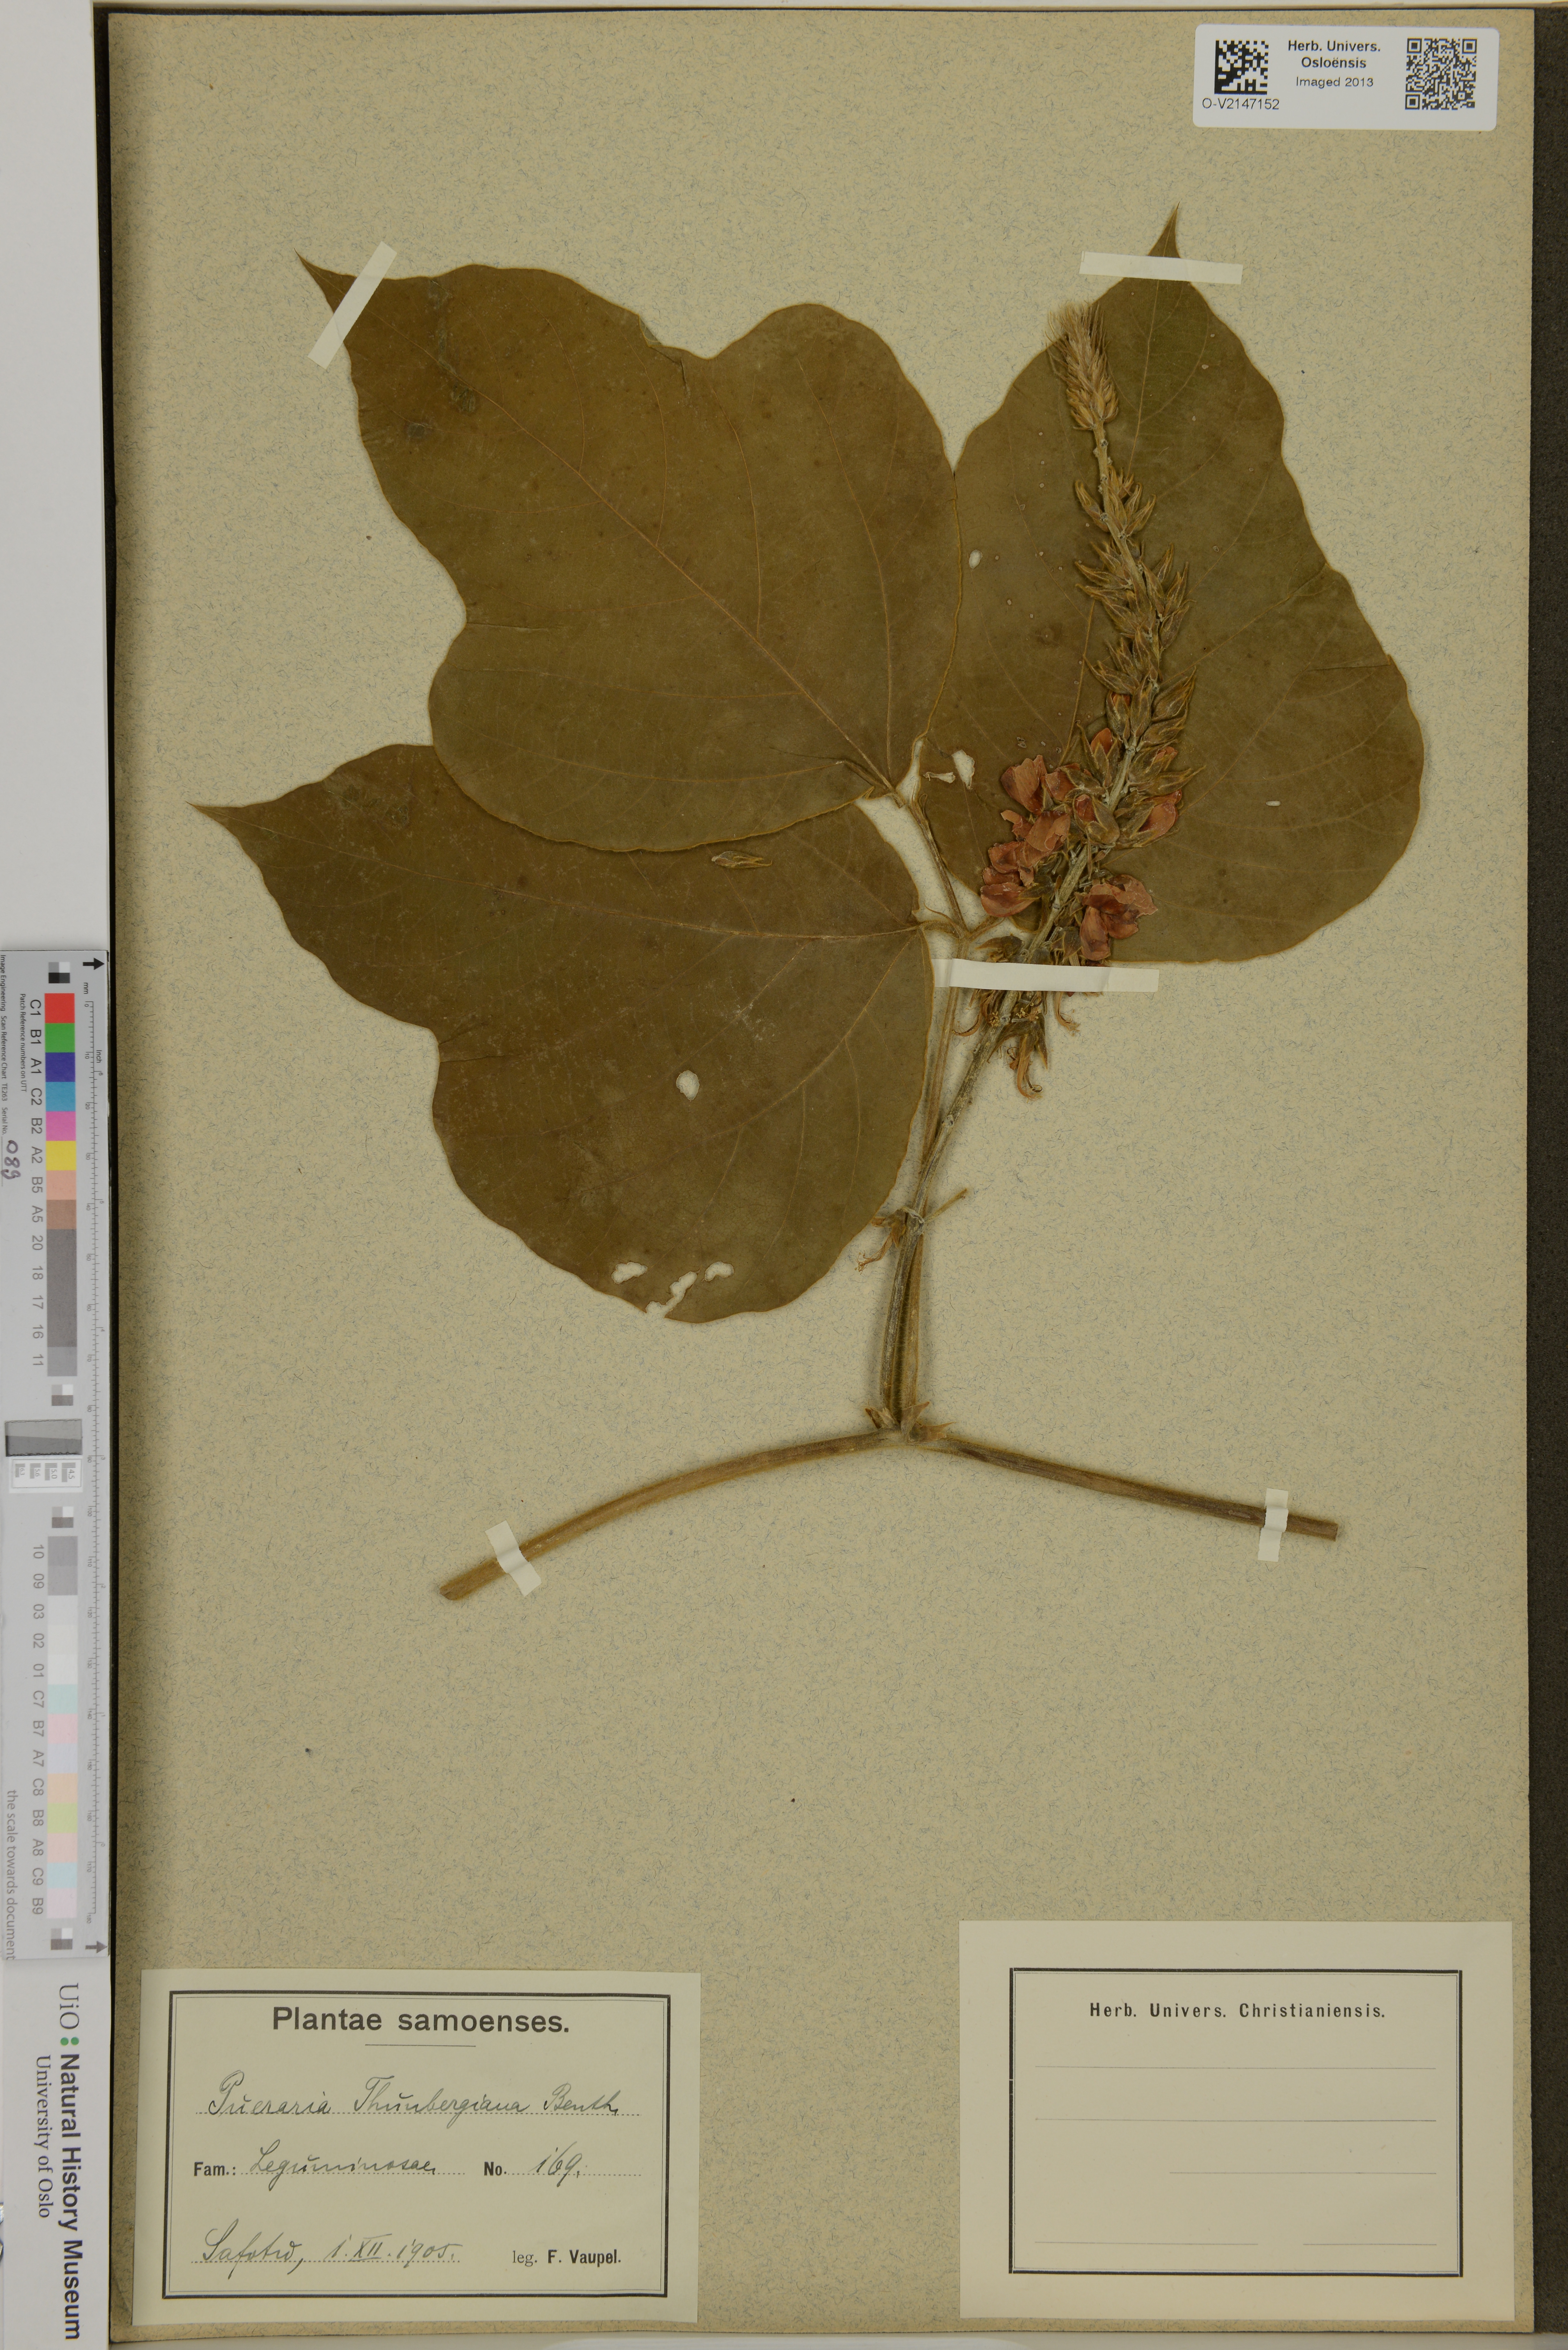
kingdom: Plantae
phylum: Tracheophyta
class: Magnoliopsida
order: Fabales
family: Fabaceae
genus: Pueraria
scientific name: Pueraria montana
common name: Kudzu
